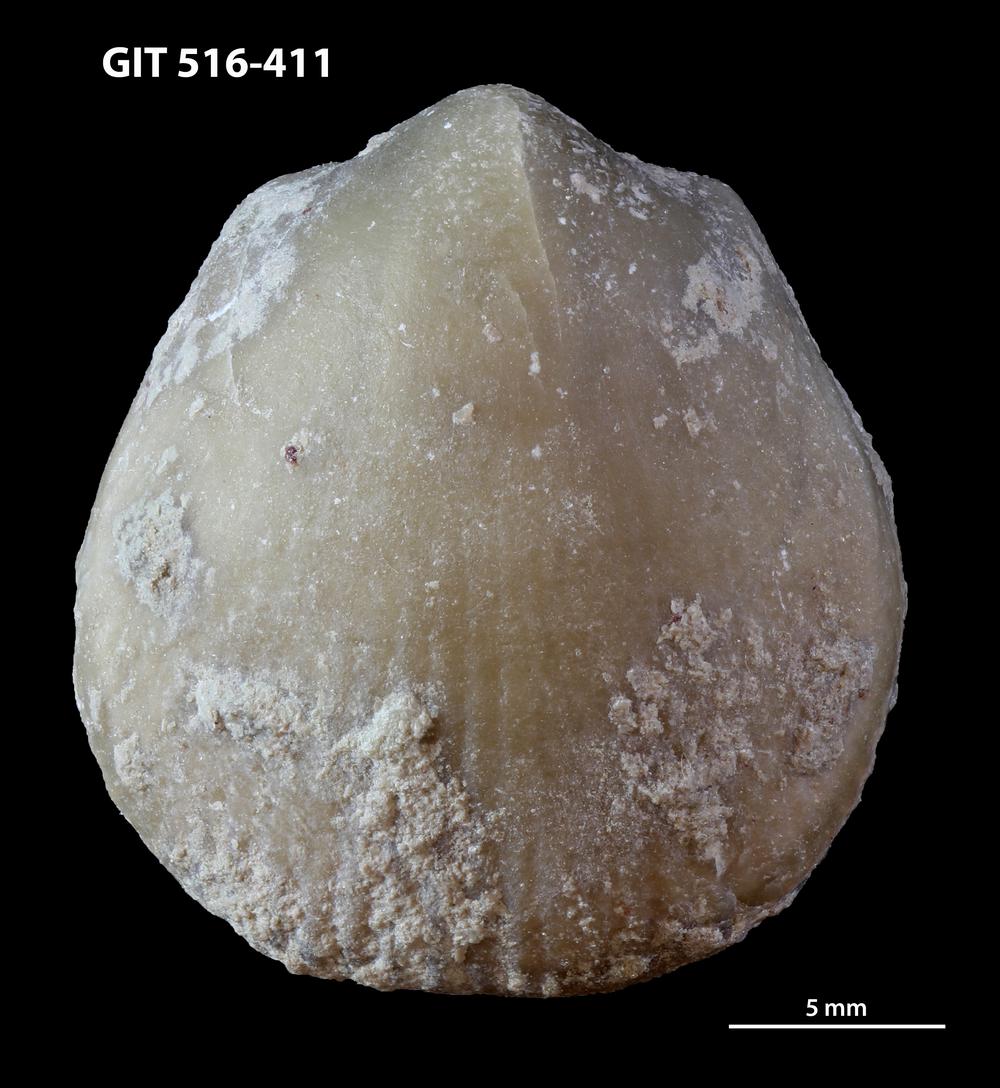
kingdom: Animalia
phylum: Brachiopoda
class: Rhynchonellata
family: Lycophoriidae
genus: Lycophoria
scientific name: Lycophoria Pentamerus longissimus
